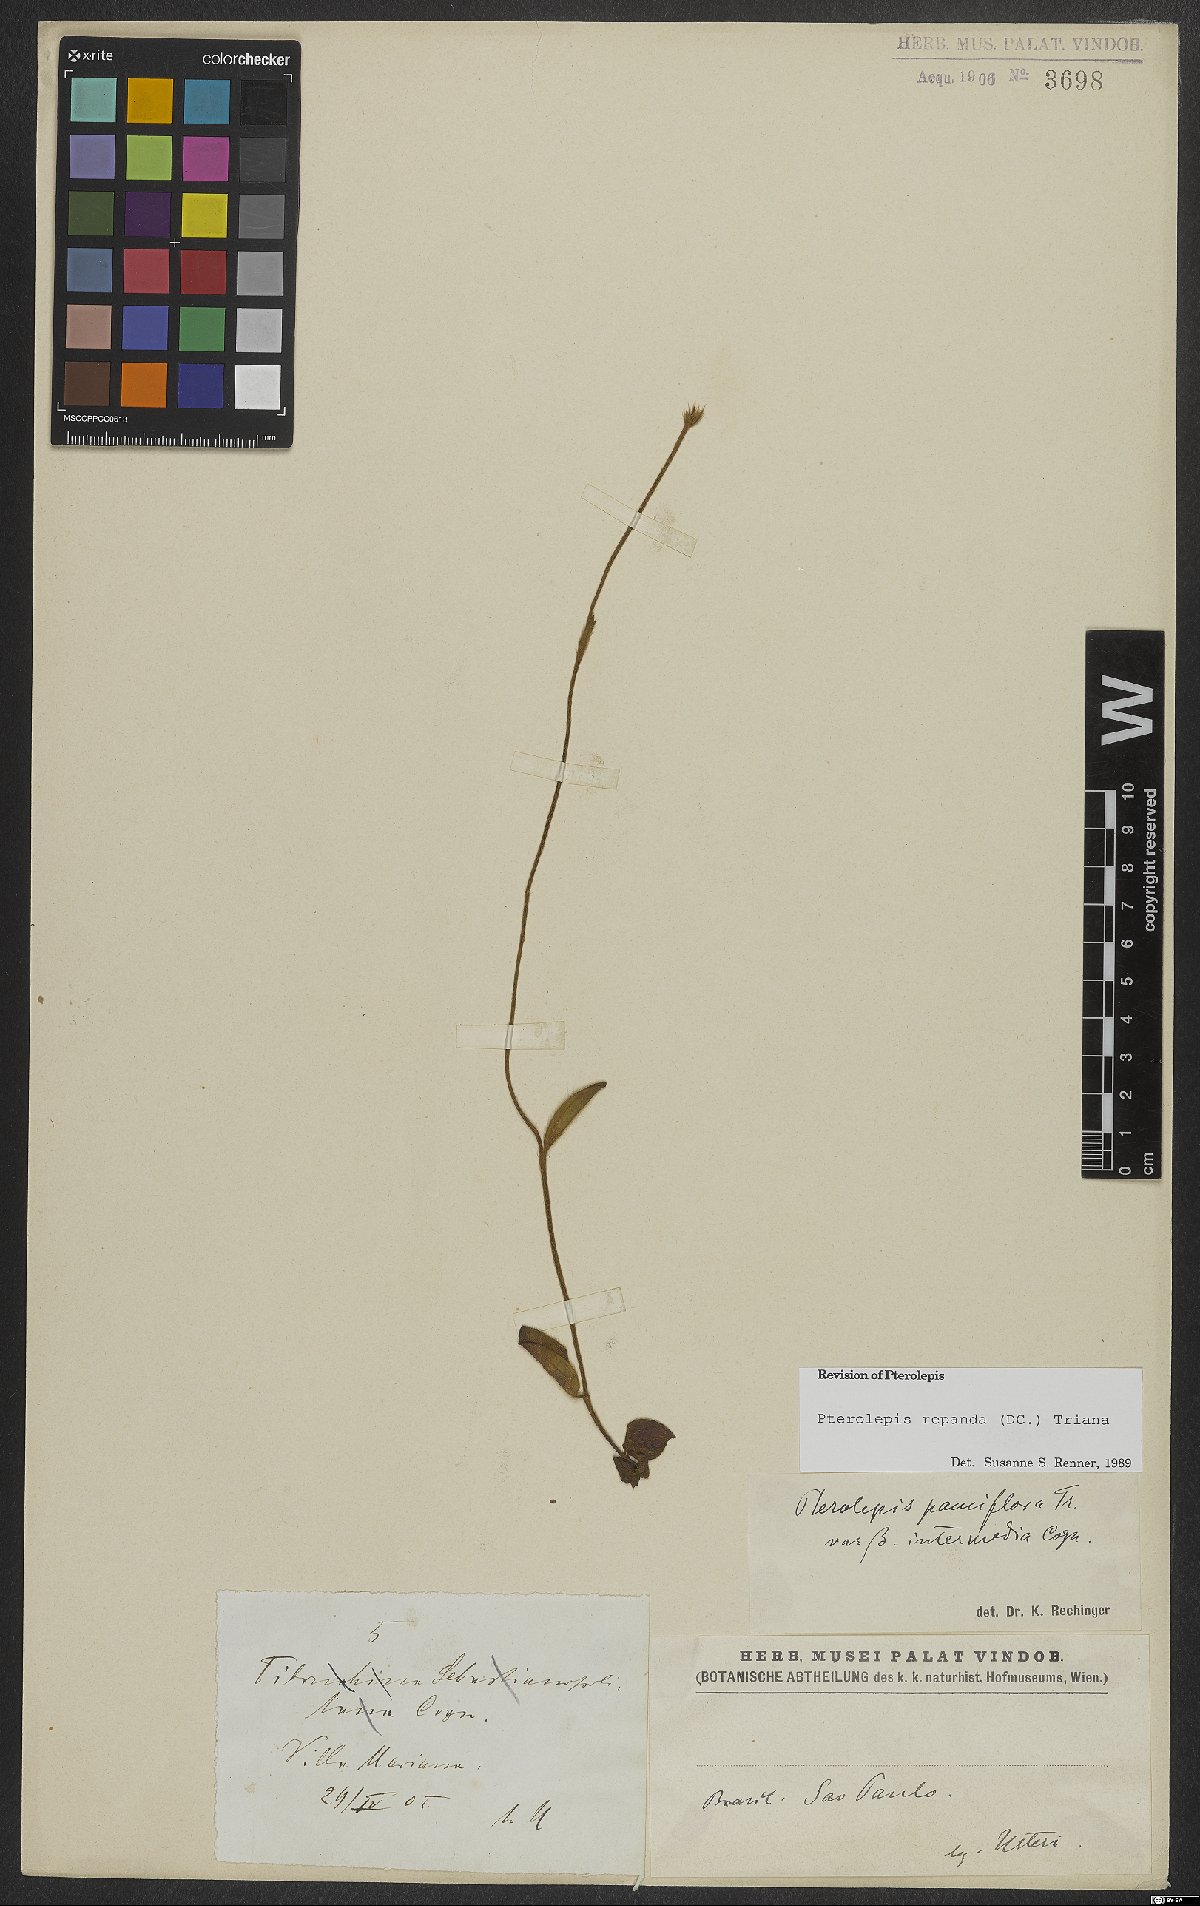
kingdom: Plantae
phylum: Tracheophyta
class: Magnoliopsida
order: Myrtales
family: Melastomataceae
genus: Pterolepis
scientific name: Pterolepis repanda
